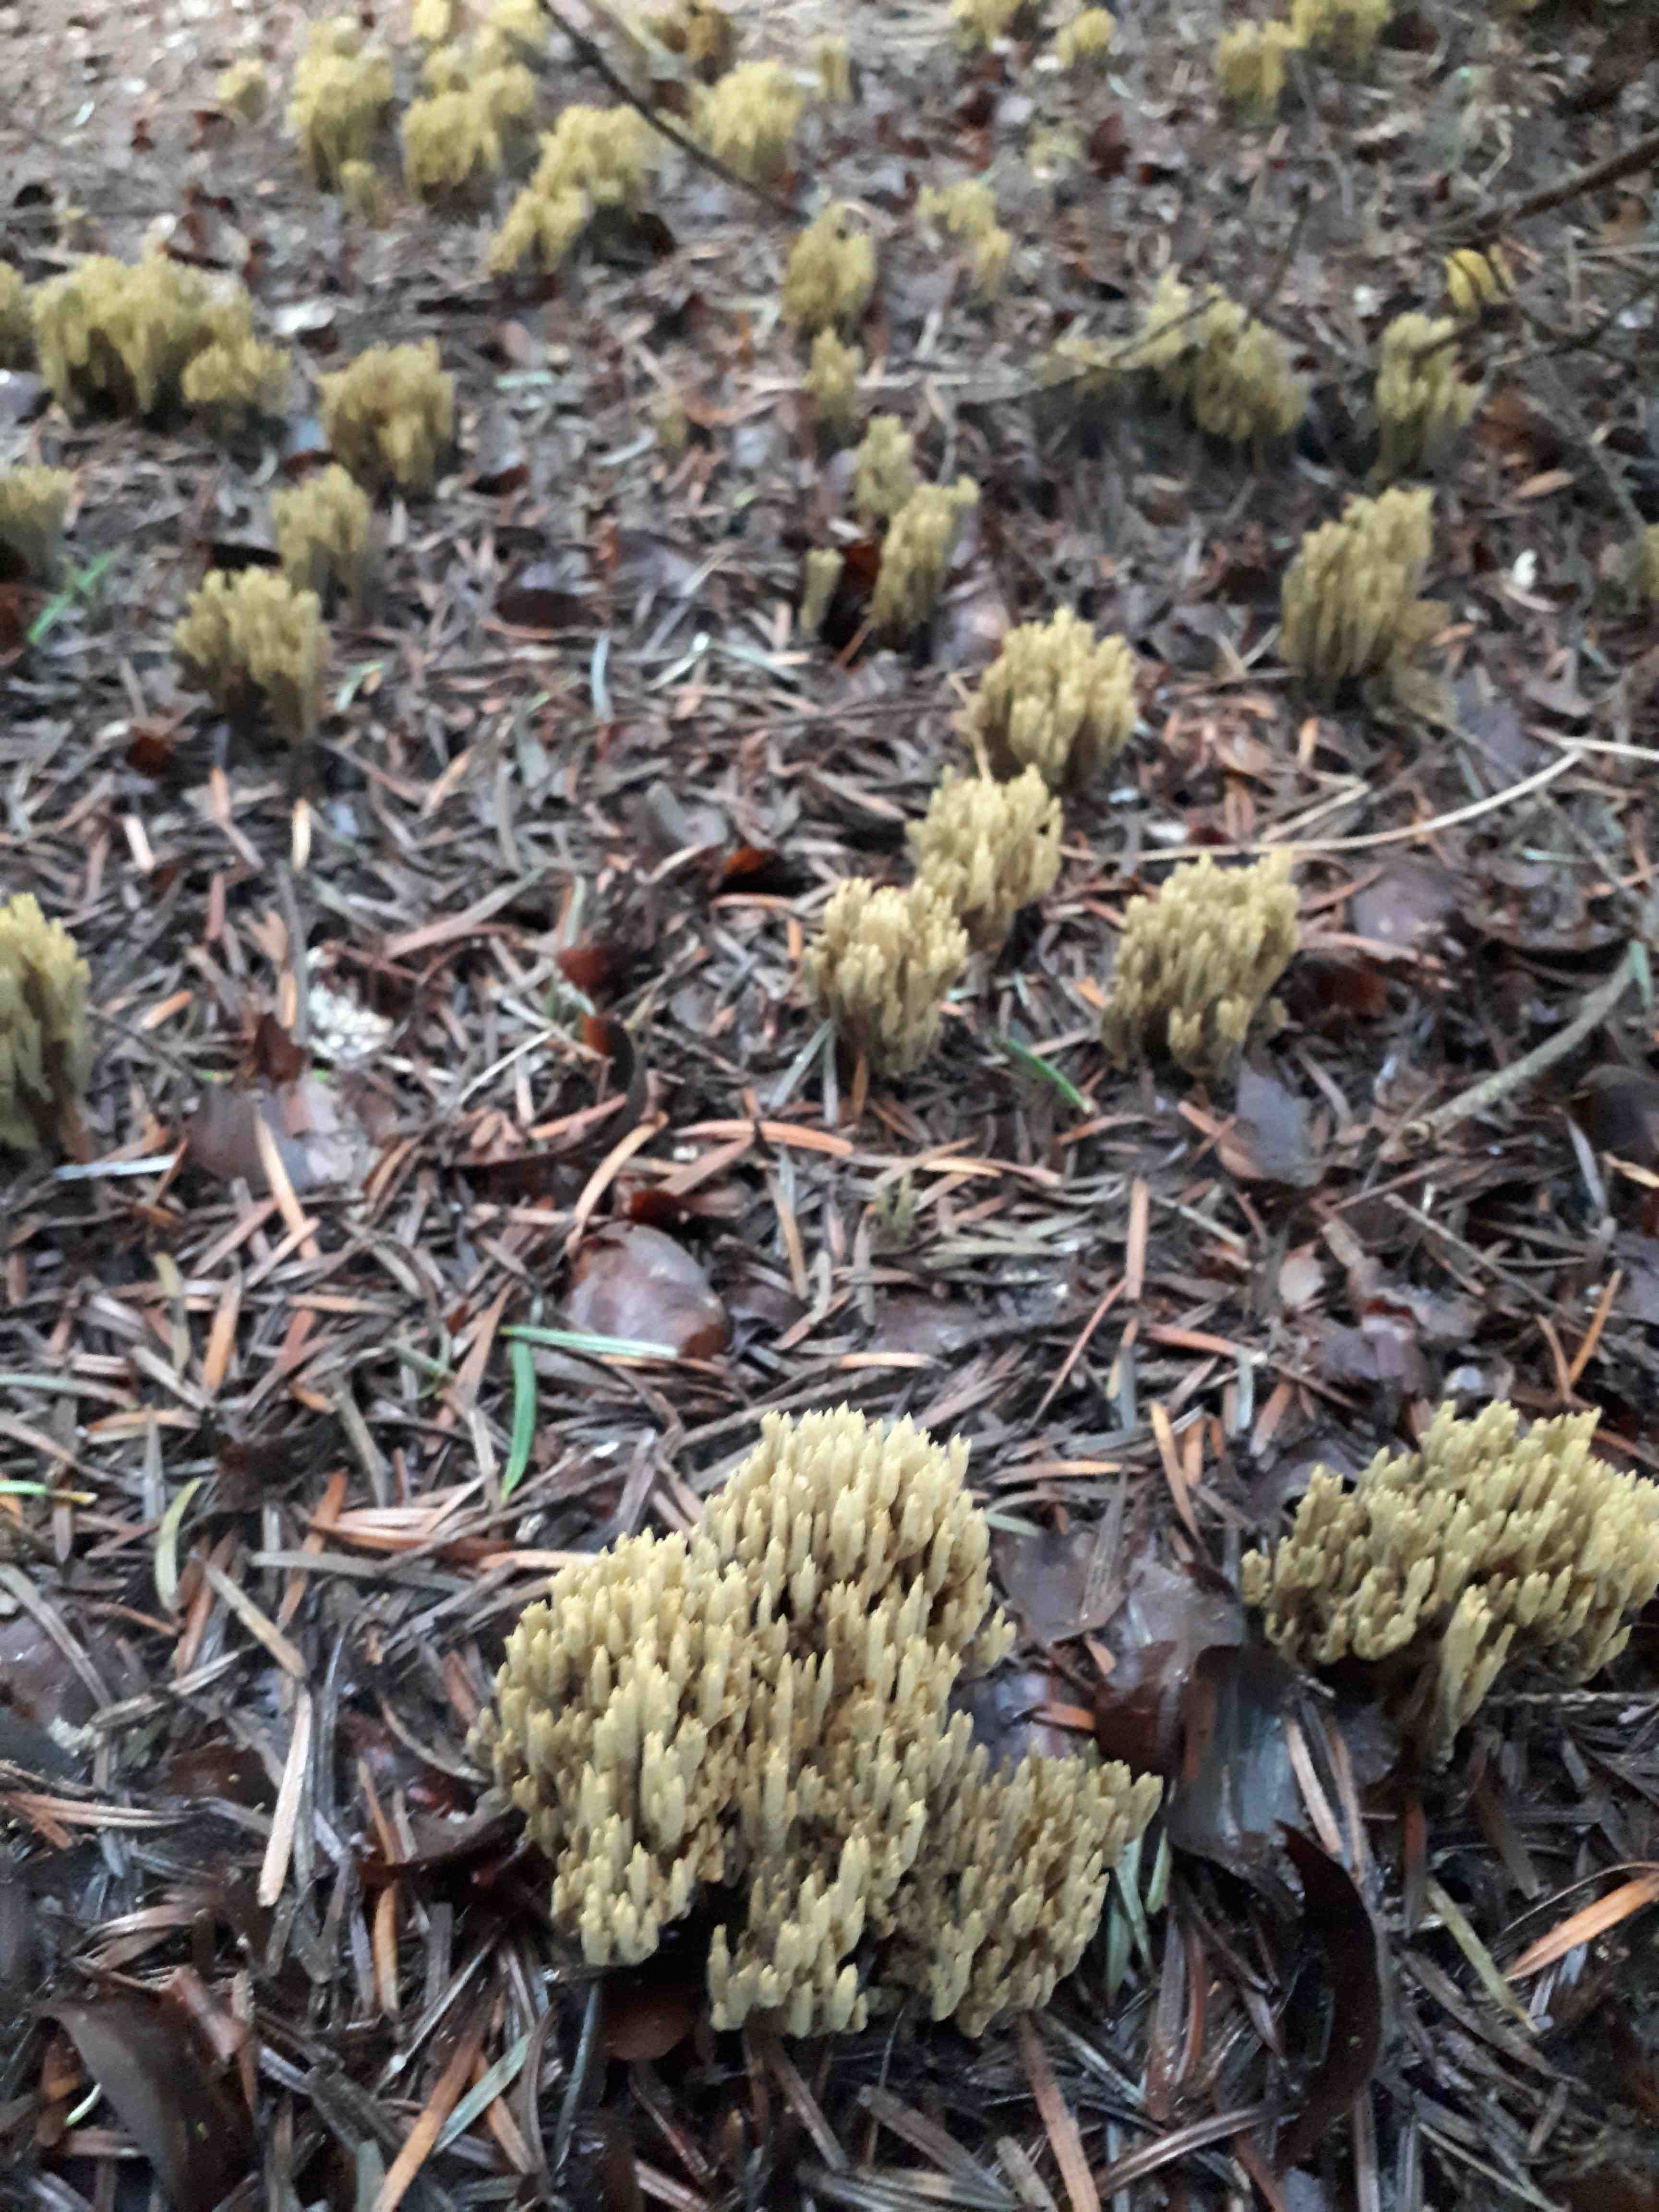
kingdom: Fungi
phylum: Basidiomycota
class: Agaricomycetes
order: Gomphales
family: Gomphaceae
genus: Phaeoclavulina
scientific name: Phaeoclavulina eumorpha
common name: gran-koralsvamp
